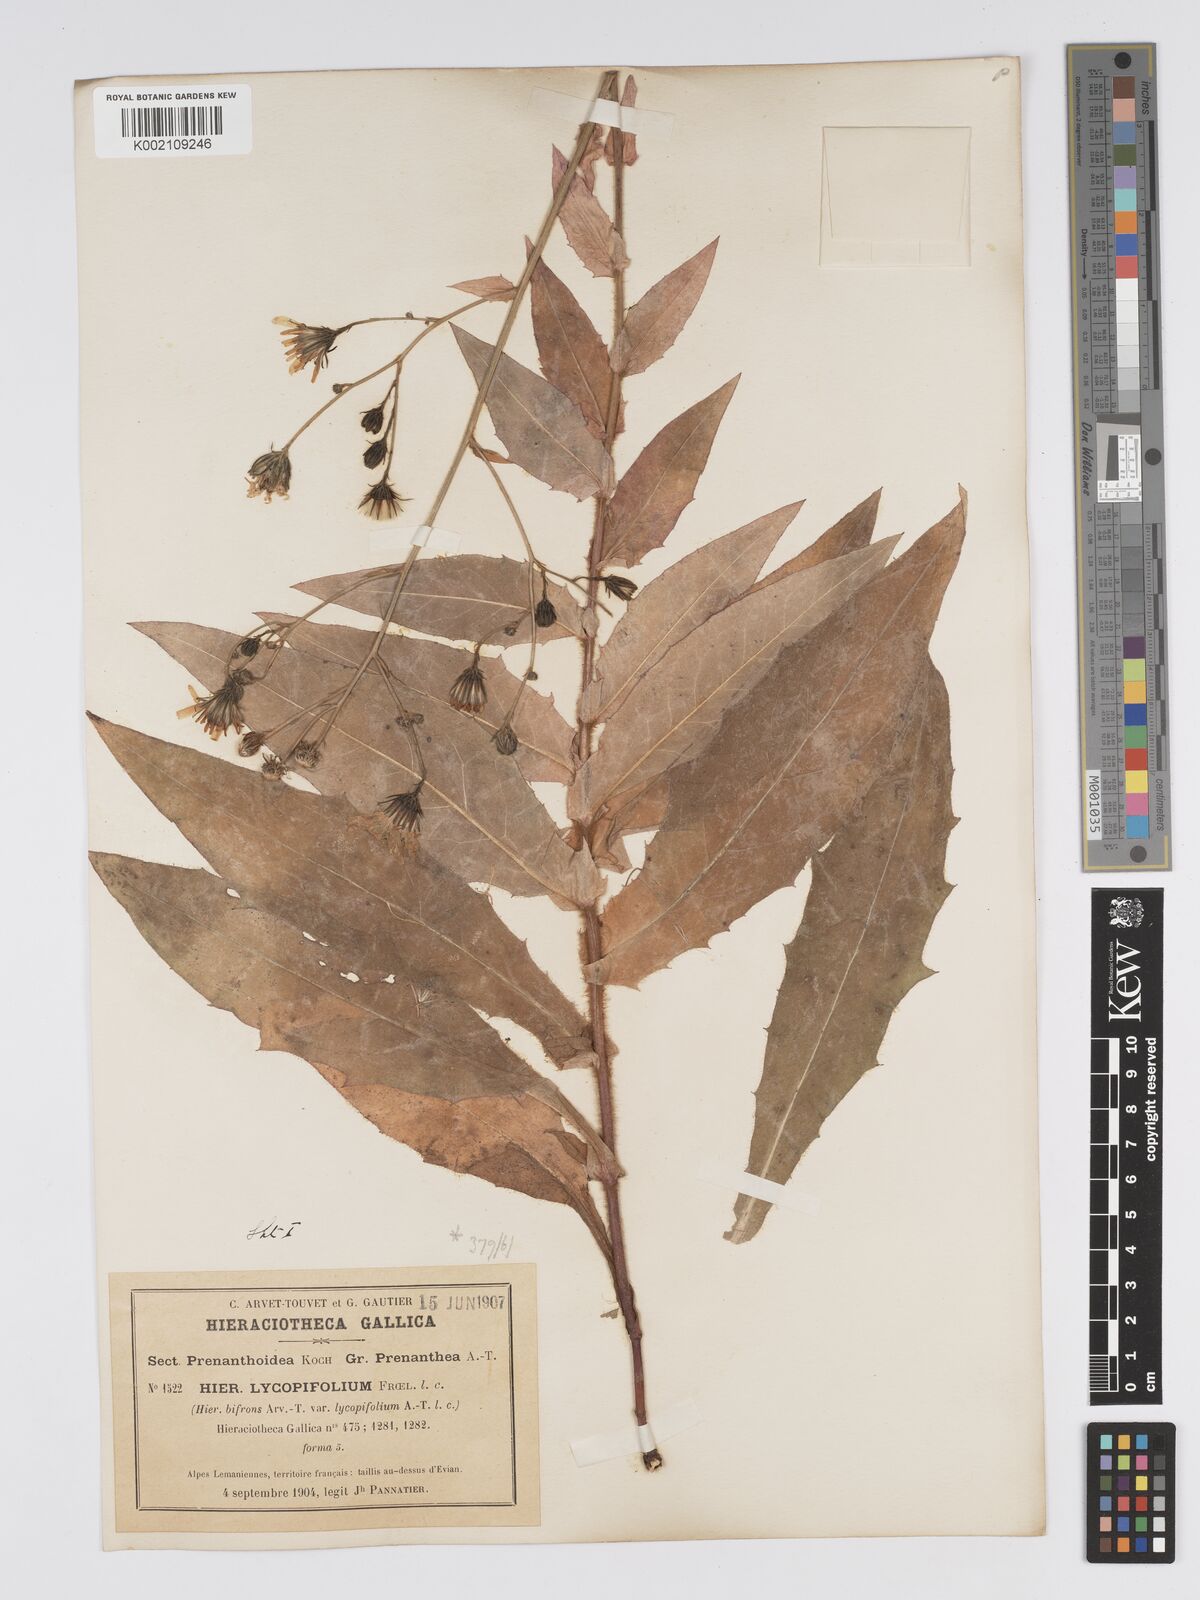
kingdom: Plantae
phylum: Tracheophyta
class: Magnoliopsida
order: Asterales
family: Asteraceae
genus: Hieracium
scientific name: Hieracium lycopifolium
